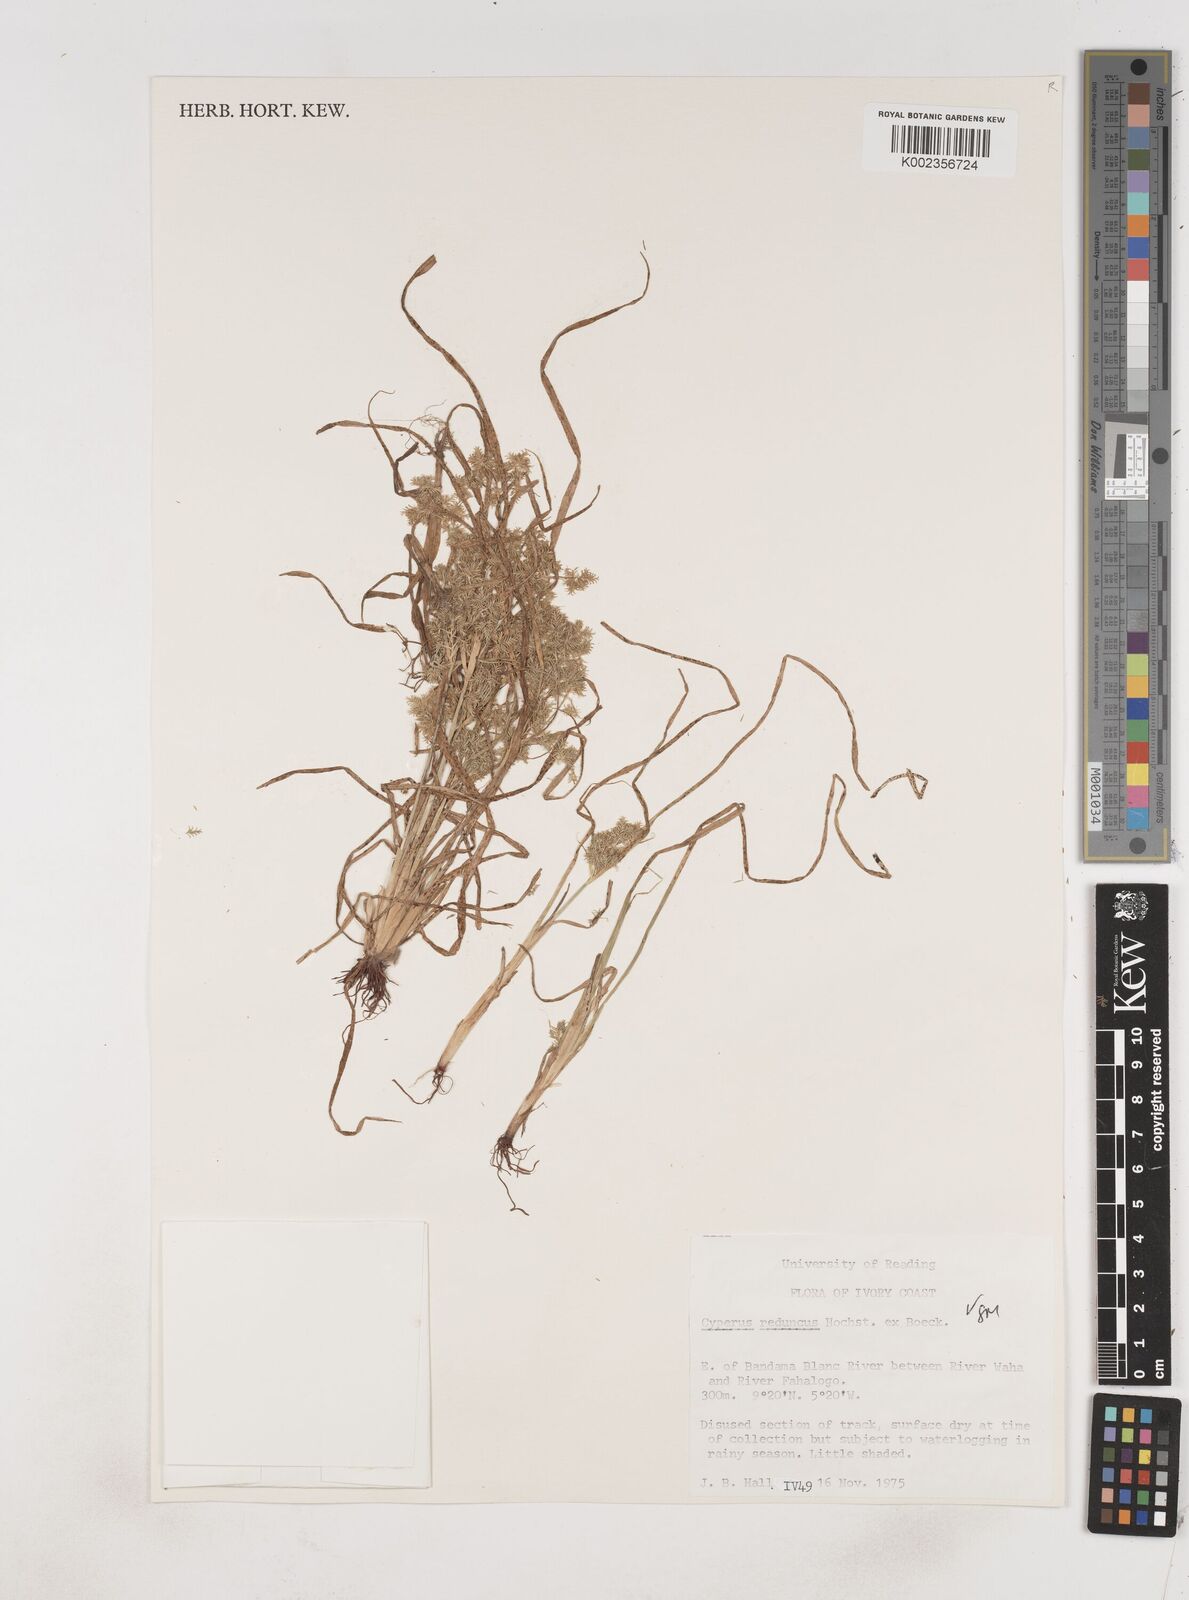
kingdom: Plantae
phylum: Tracheophyta
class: Liliopsida
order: Poales
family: Cyperaceae
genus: Cyperus
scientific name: Cyperus reduncus
